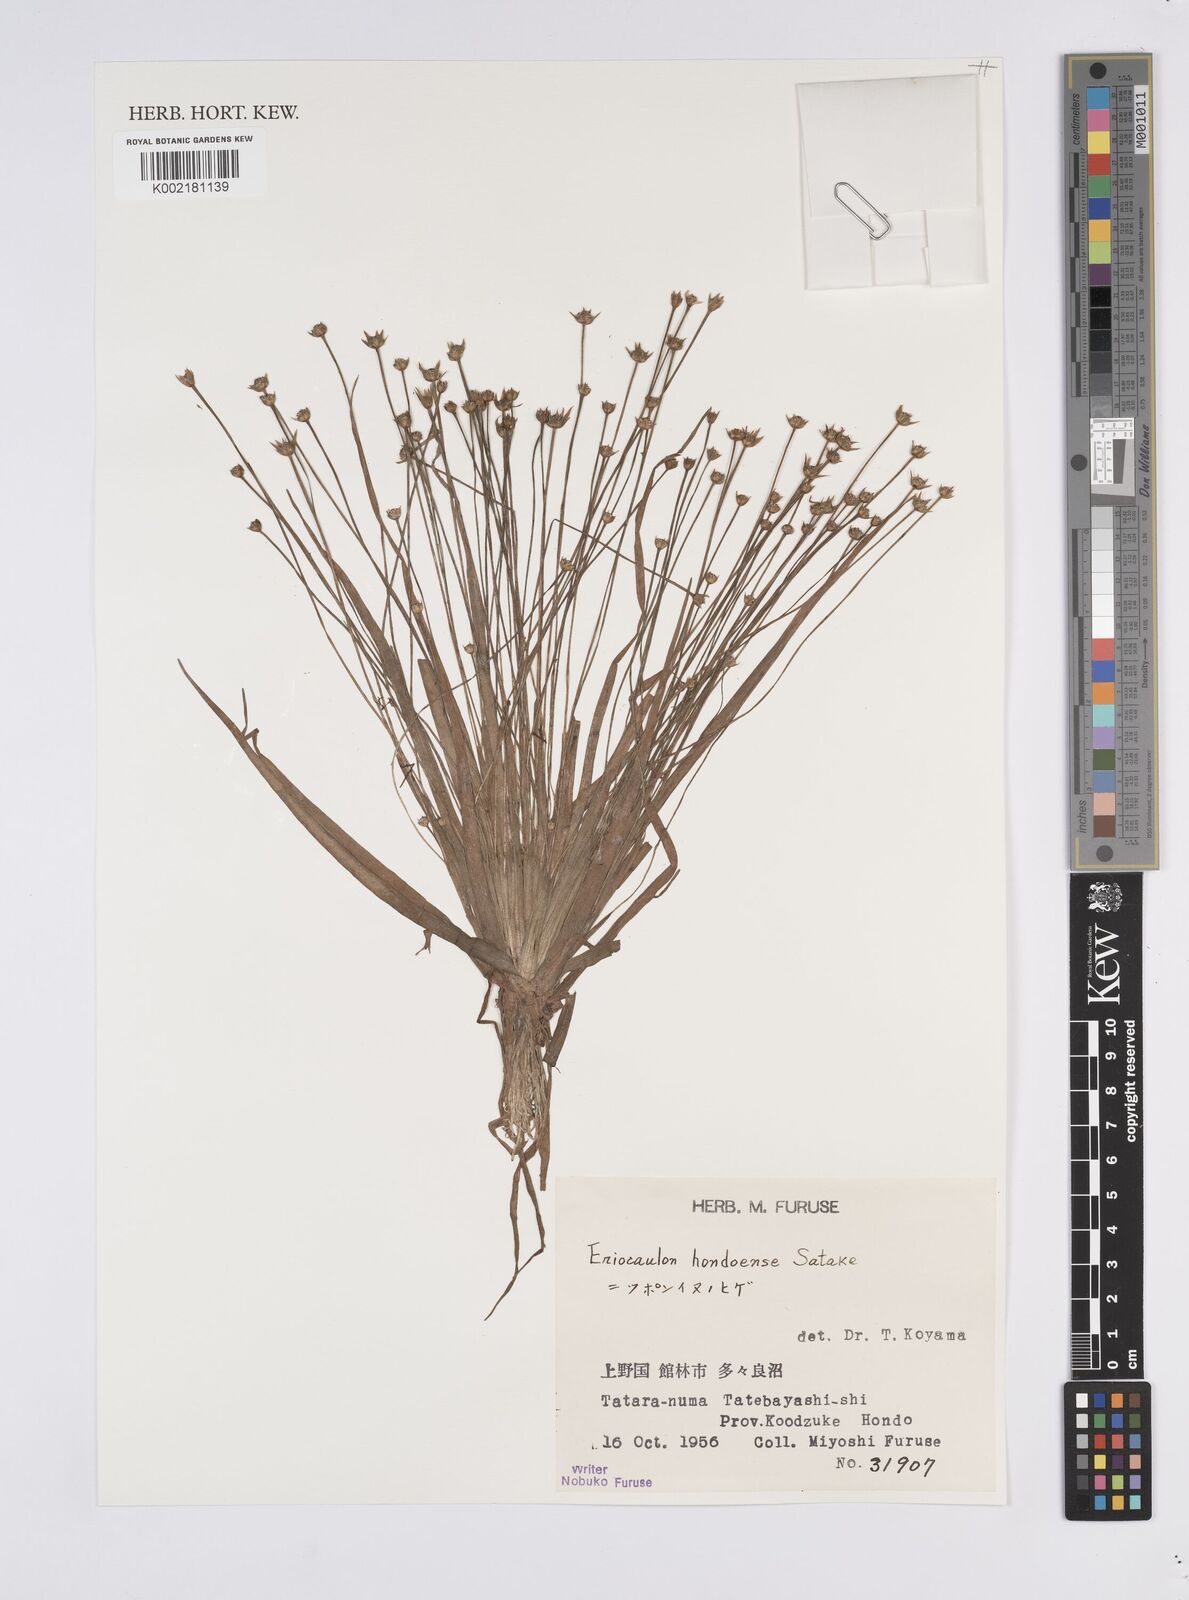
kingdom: Plantae
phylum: Tracheophyta
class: Liliopsida
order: Poales
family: Eriocaulaceae
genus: Eriocaulon
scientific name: Eriocaulon taquetii
